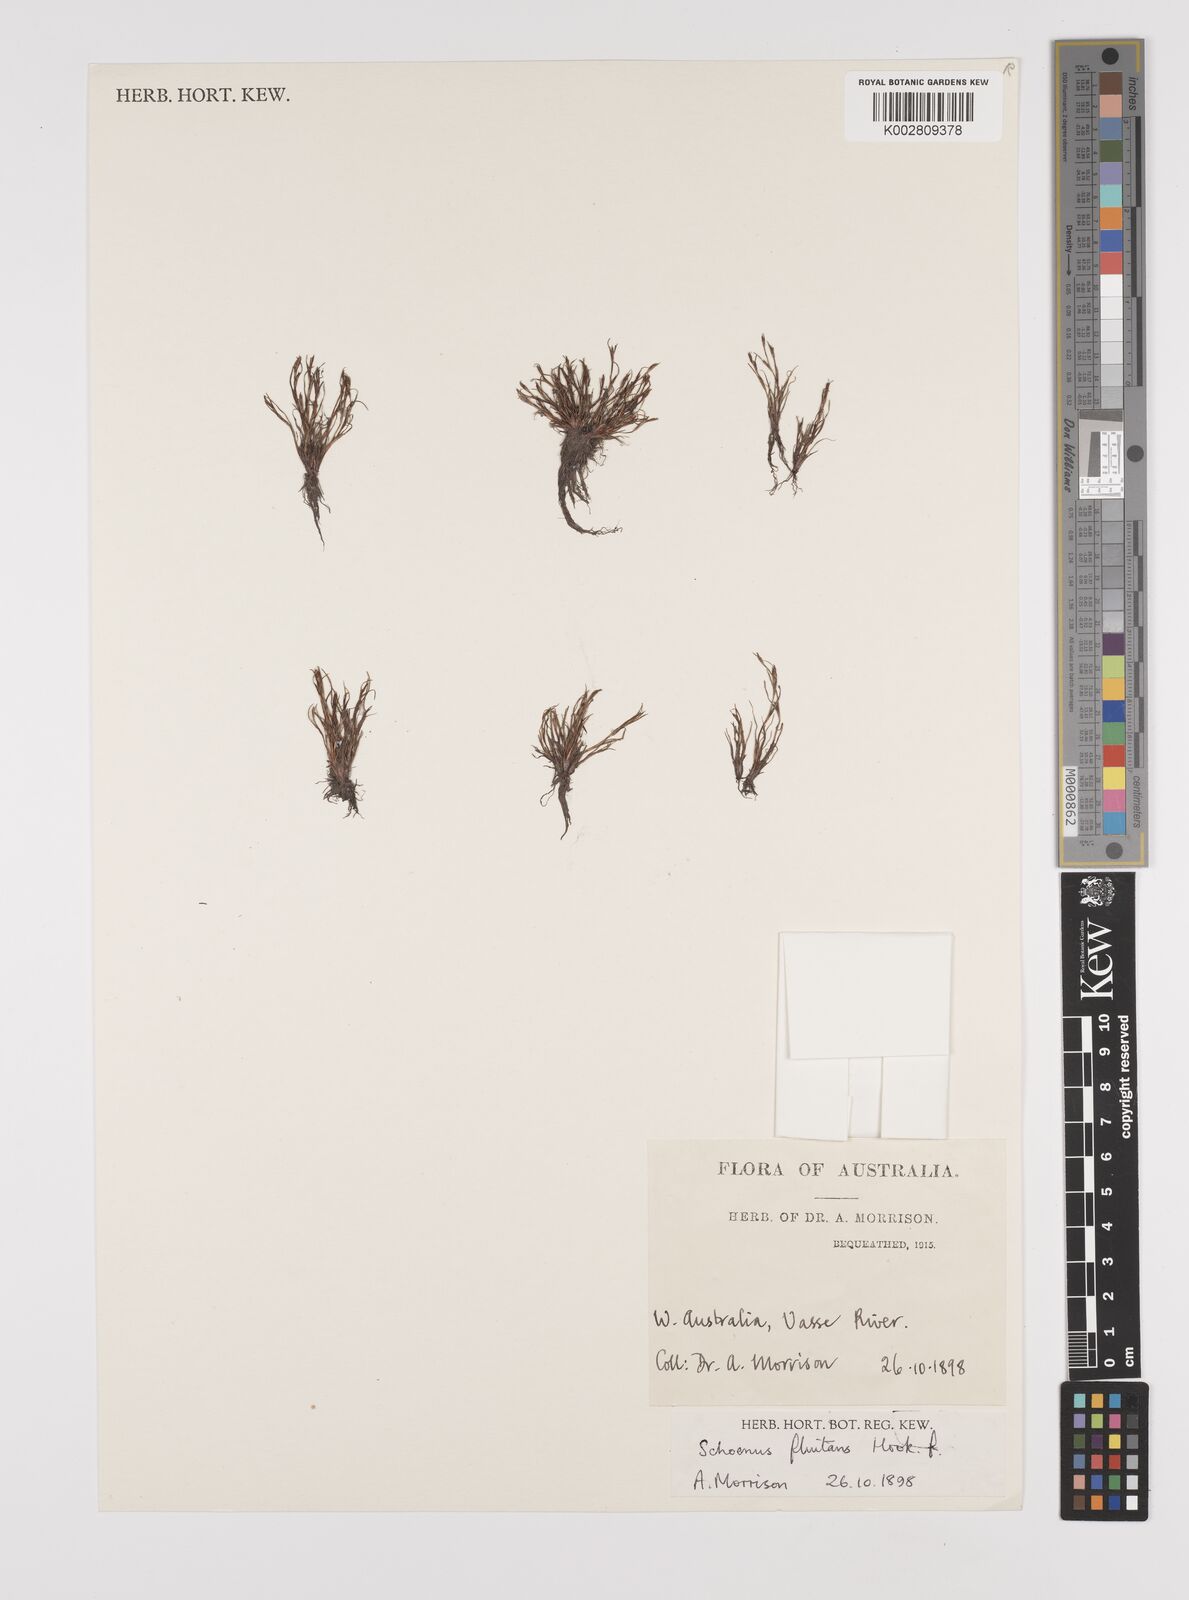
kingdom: Plantae
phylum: Tracheophyta
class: Liliopsida
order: Poales
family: Cyperaceae
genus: Schoenus
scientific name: Schoenus fluitans
